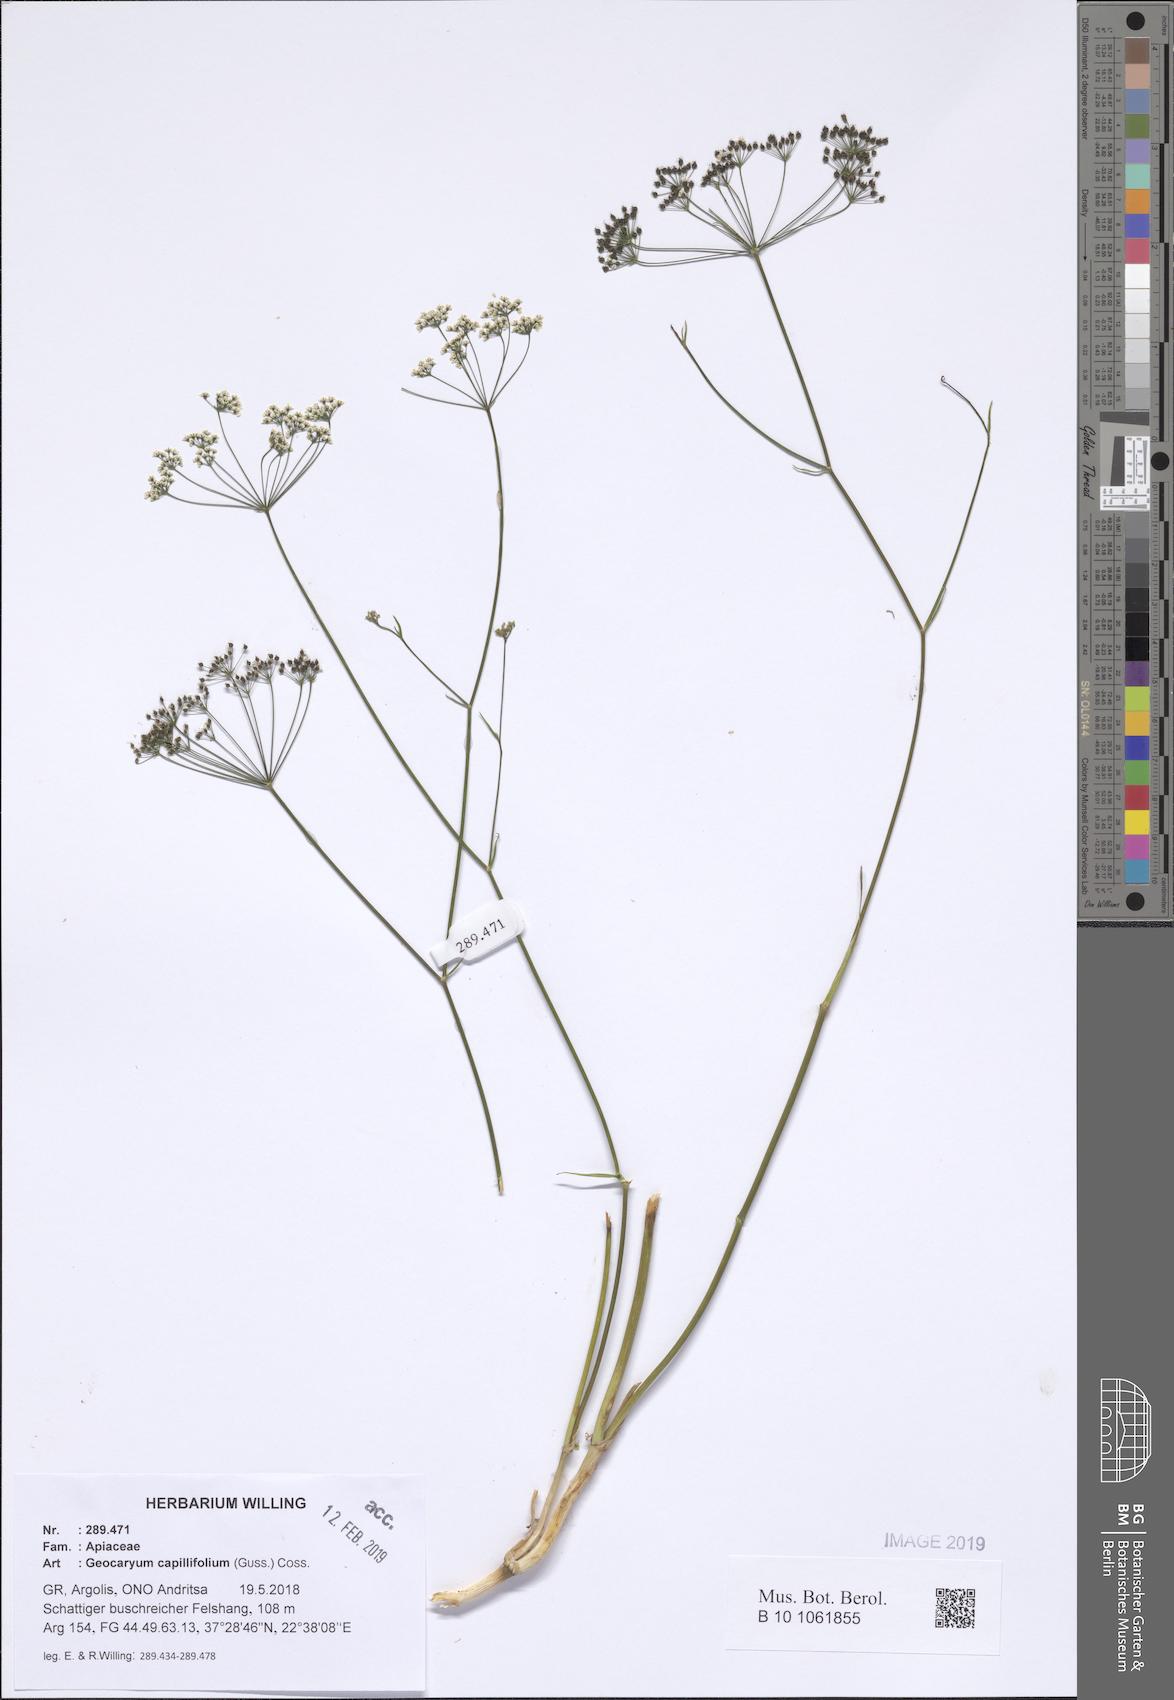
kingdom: Plantae
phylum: Tracheophyta
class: Magnoliopsida
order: Apiales
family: Apiaceae
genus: Geocaryum
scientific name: Geocaryum capillifolium
